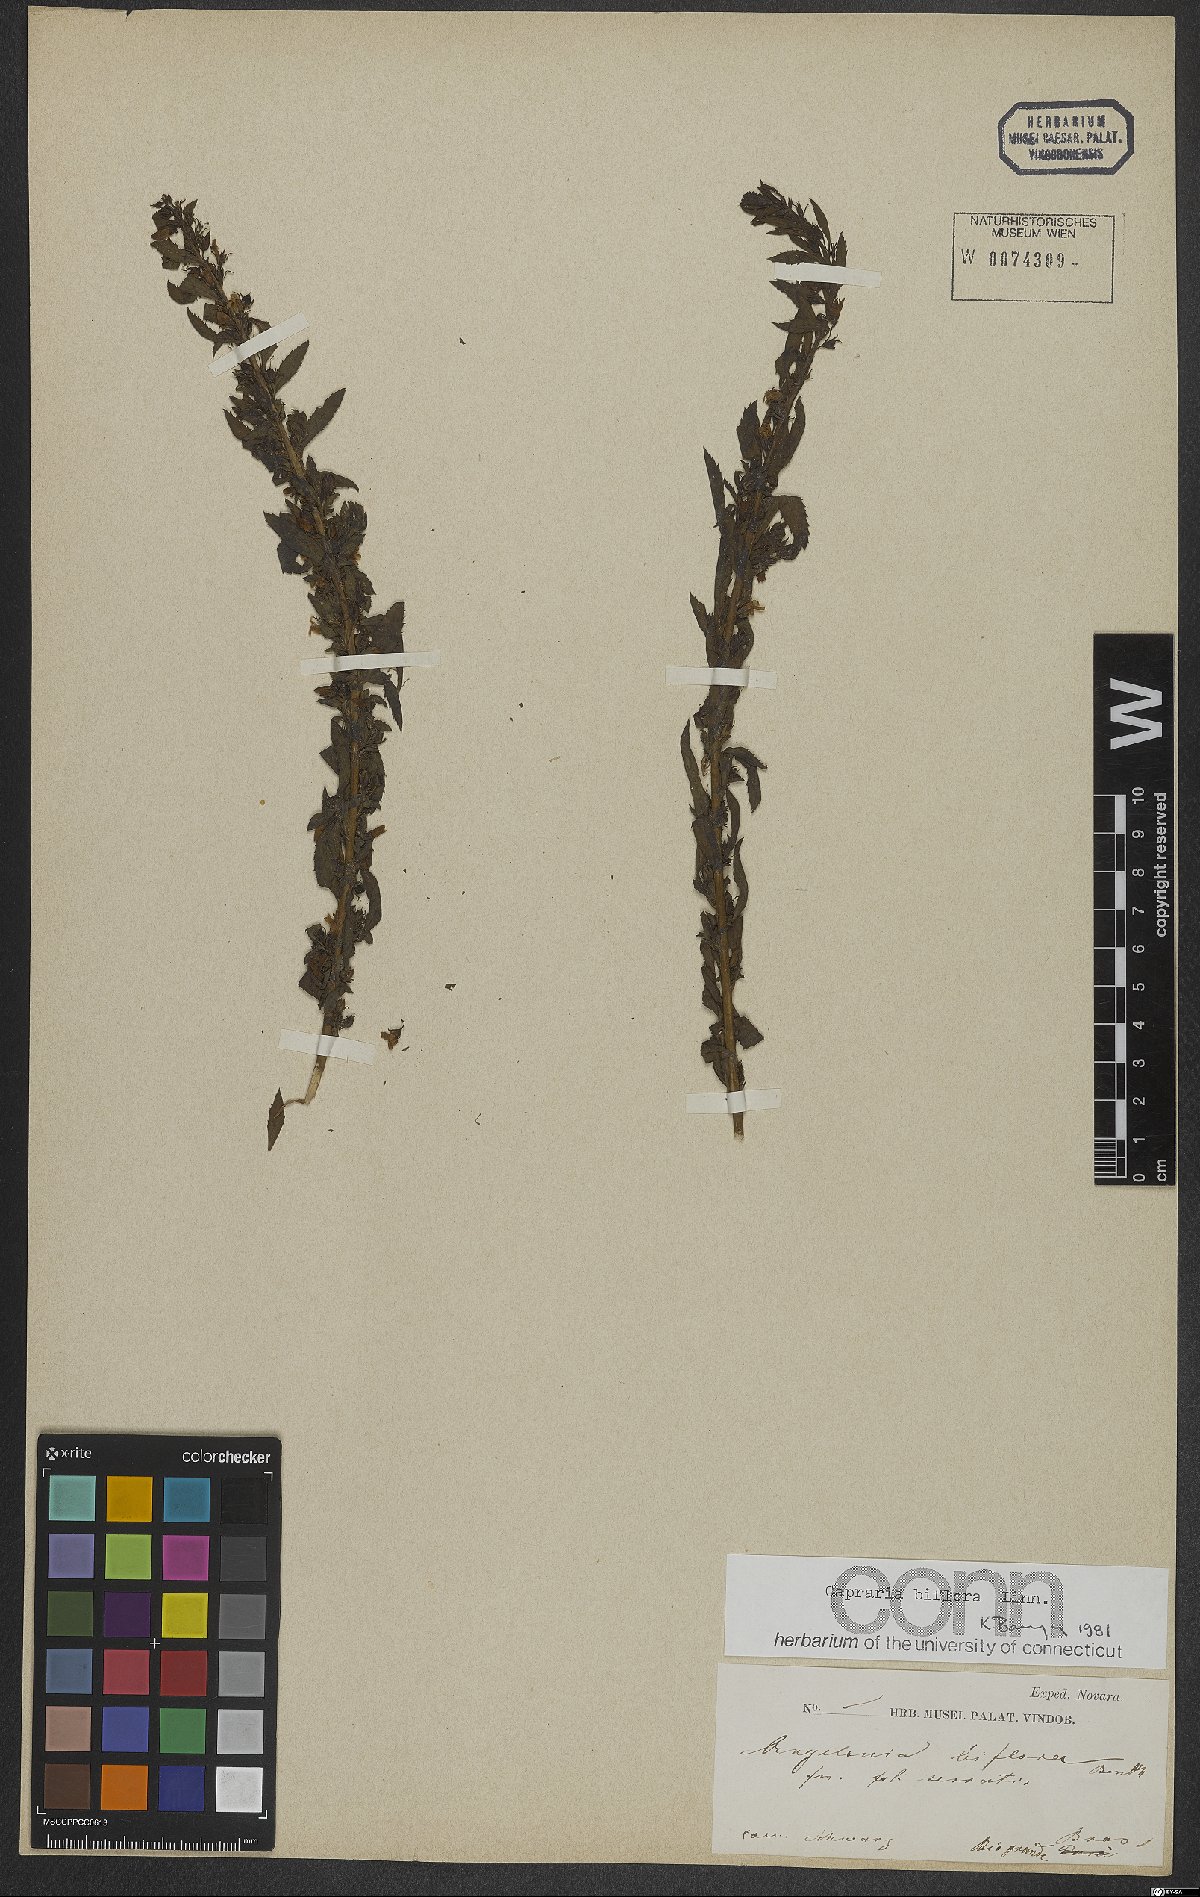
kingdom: Plantae
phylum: Tracheophyta
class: Magnoliopsida
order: Lamiales
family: Scrophulariaceae
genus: Capraria
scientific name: Capraria biflora
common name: Goatweed
